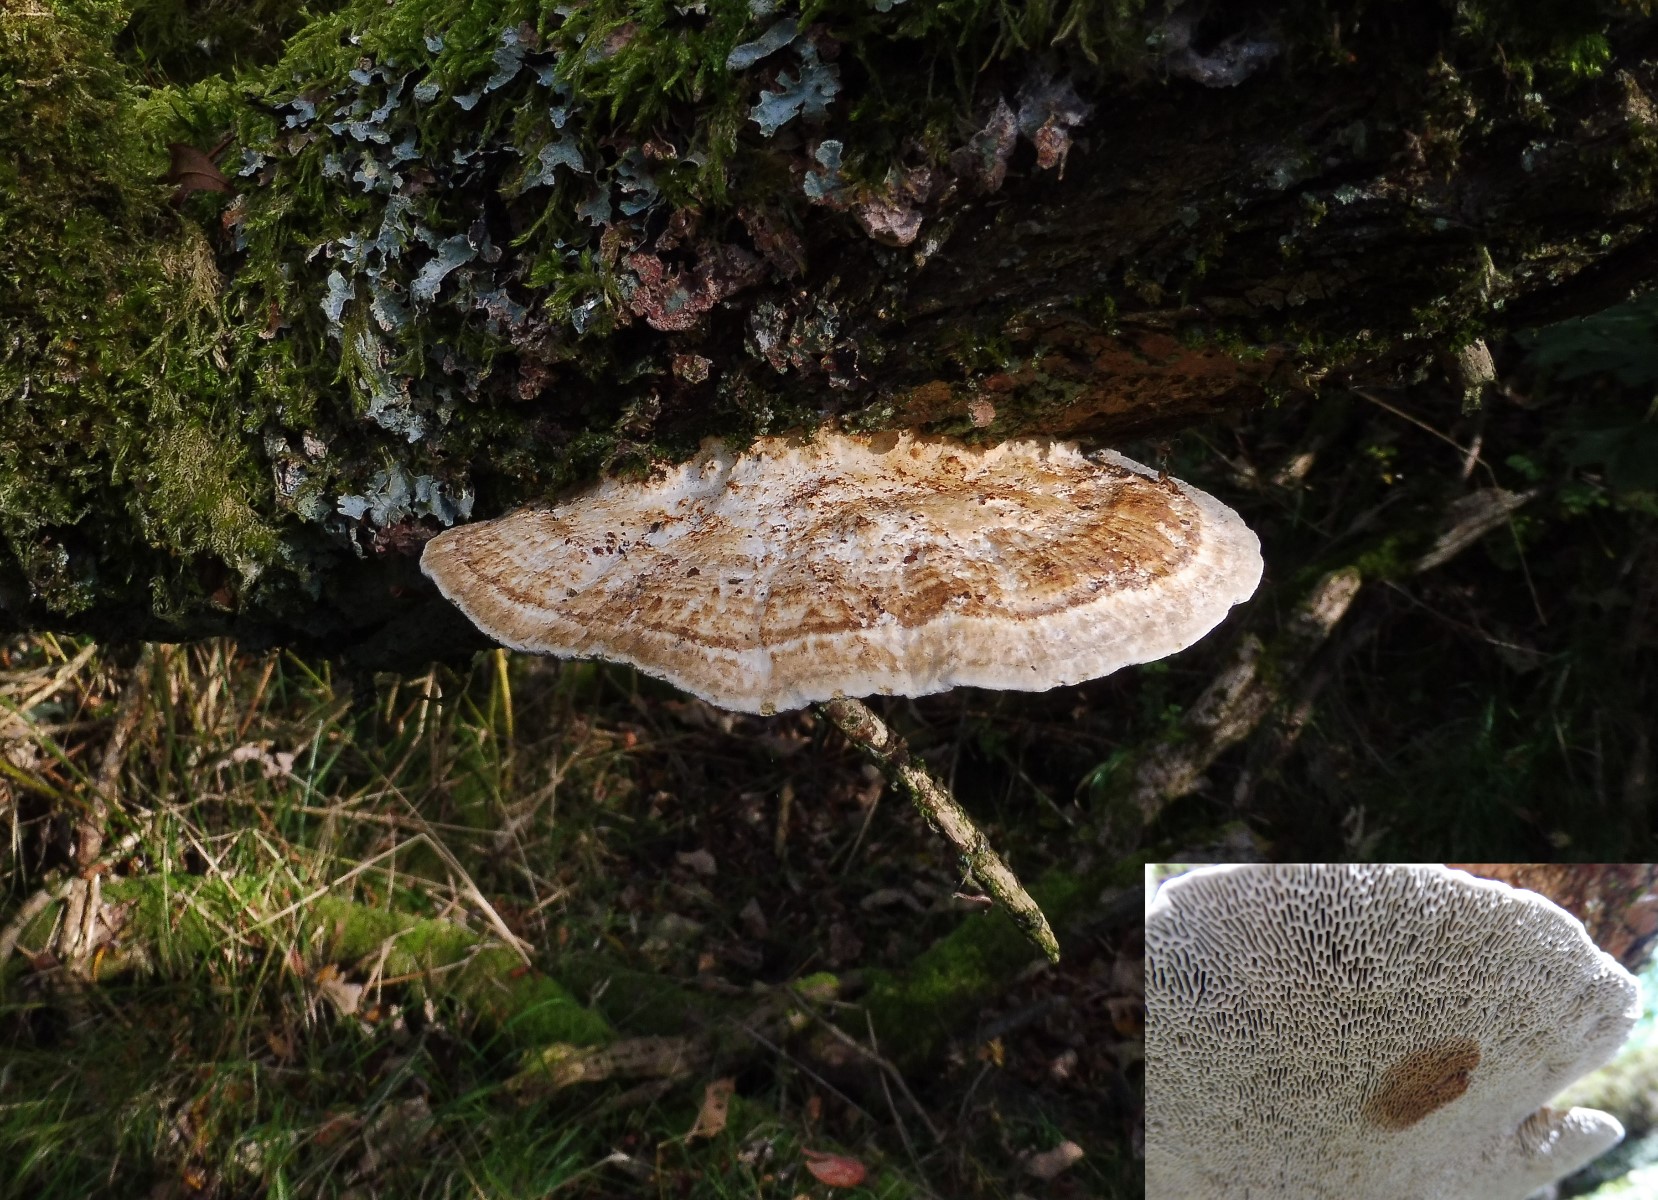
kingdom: Fungi
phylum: Basidiomycota
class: Agaricomycetes
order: Polyporales
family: Polyporaceae
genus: Daedaleopsis
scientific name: Daedaleopsis confragosa
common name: rødmende læderporesvamp
